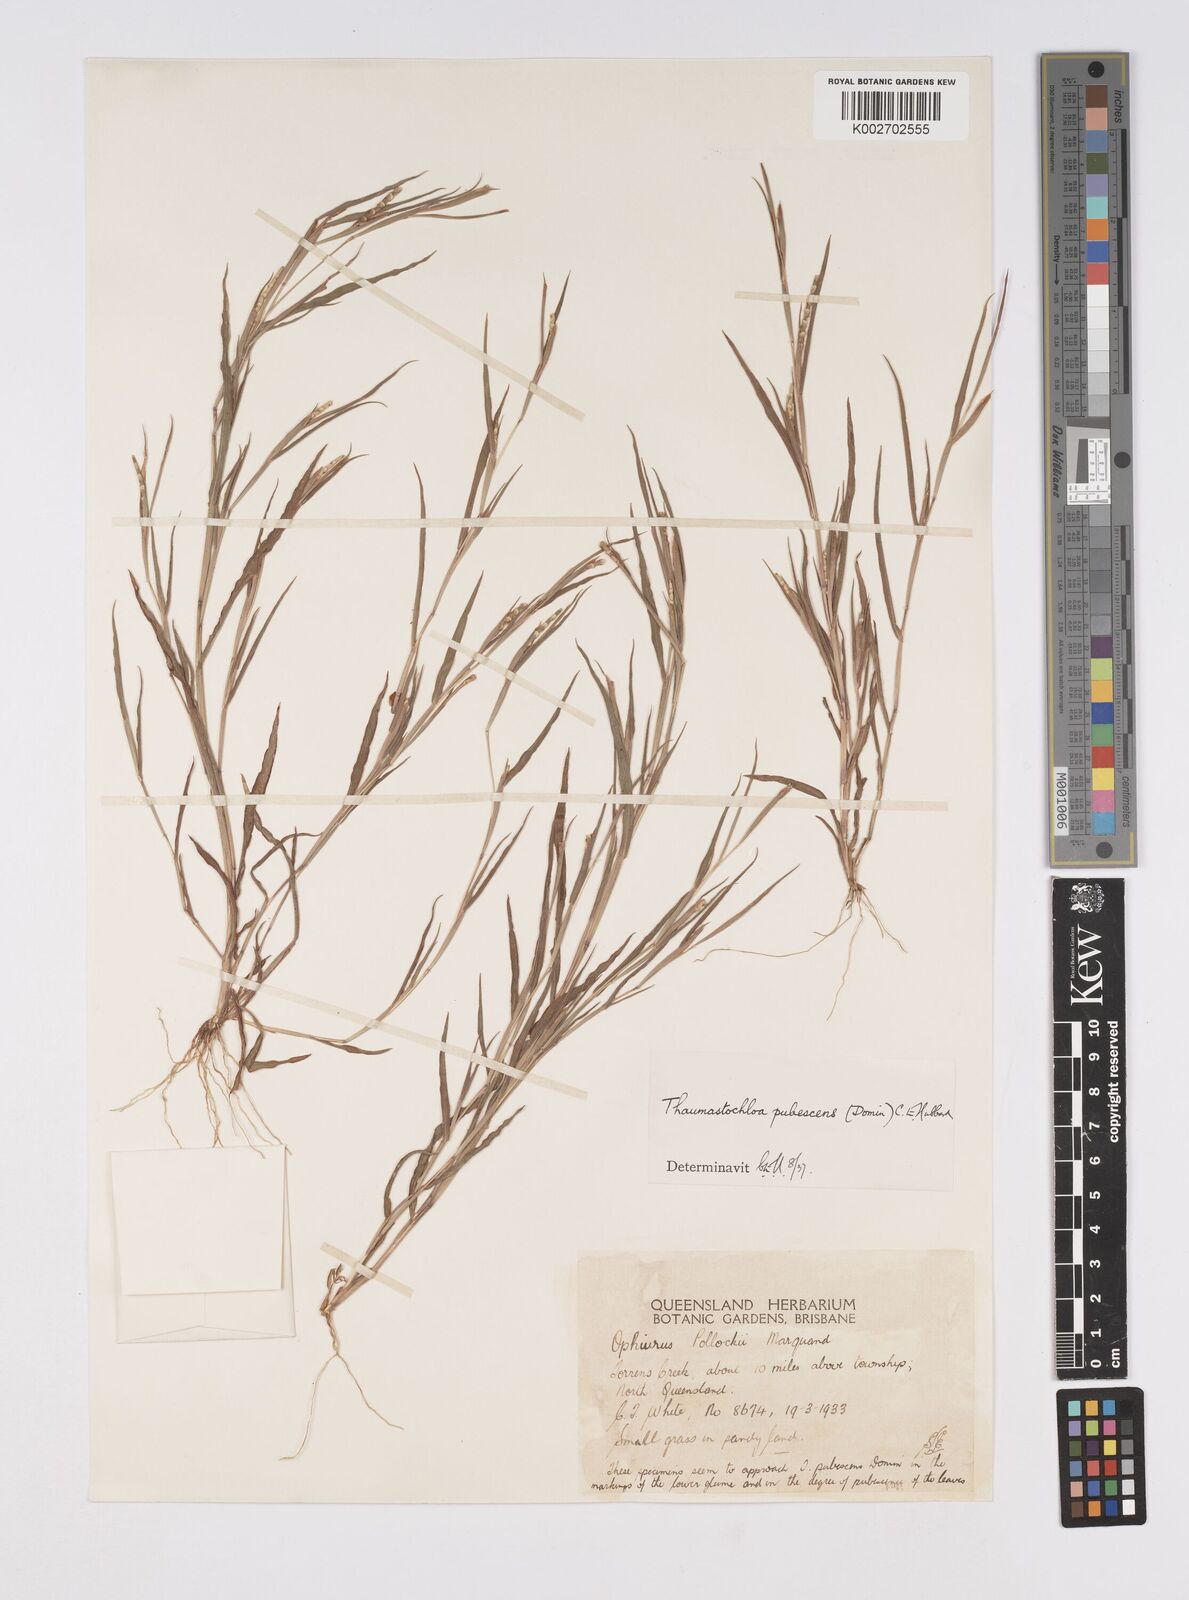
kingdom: Plantae
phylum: Tracheophyta
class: Liliopsida
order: Poales
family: Poaceae
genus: Thaumastochloa
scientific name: Thaumastochloa pubescens
